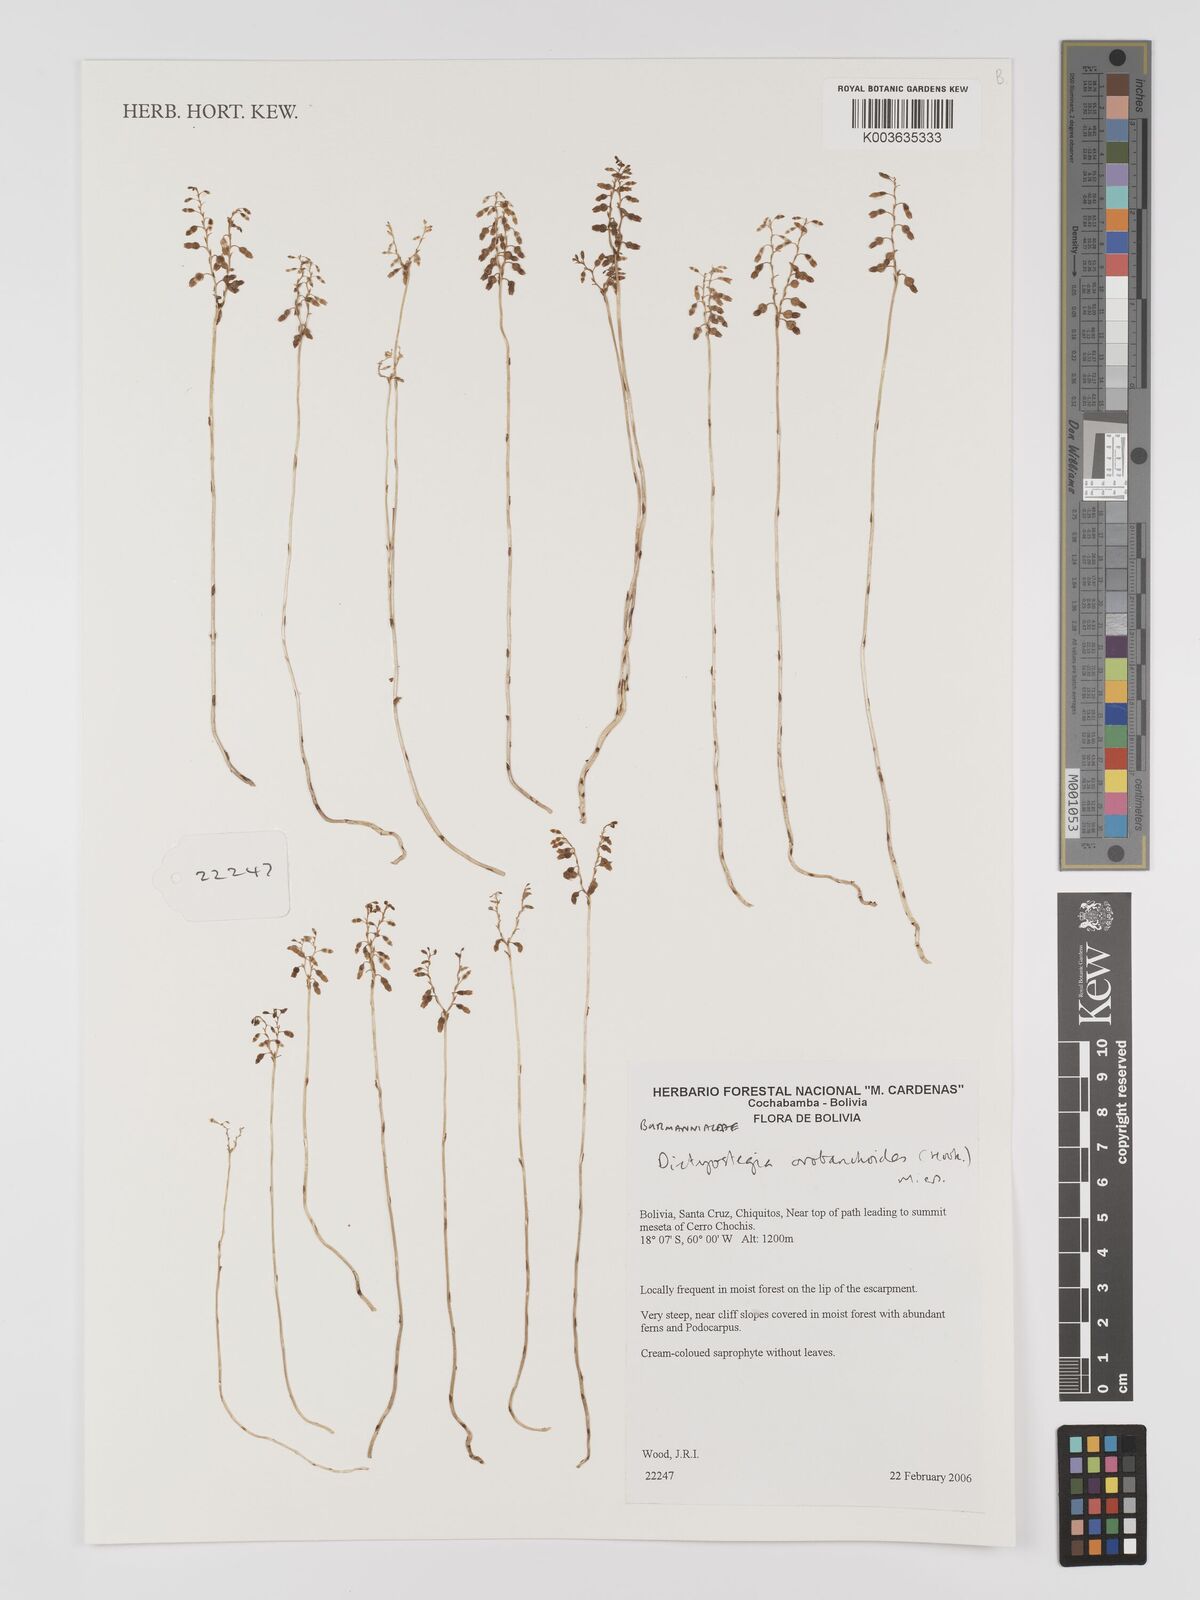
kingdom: Plantae
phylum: Tracheophyta
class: Liliopsida
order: Dioscoreales
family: Burmanniaceae
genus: Dictyostega
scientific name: Dictyostega orobanchoides
